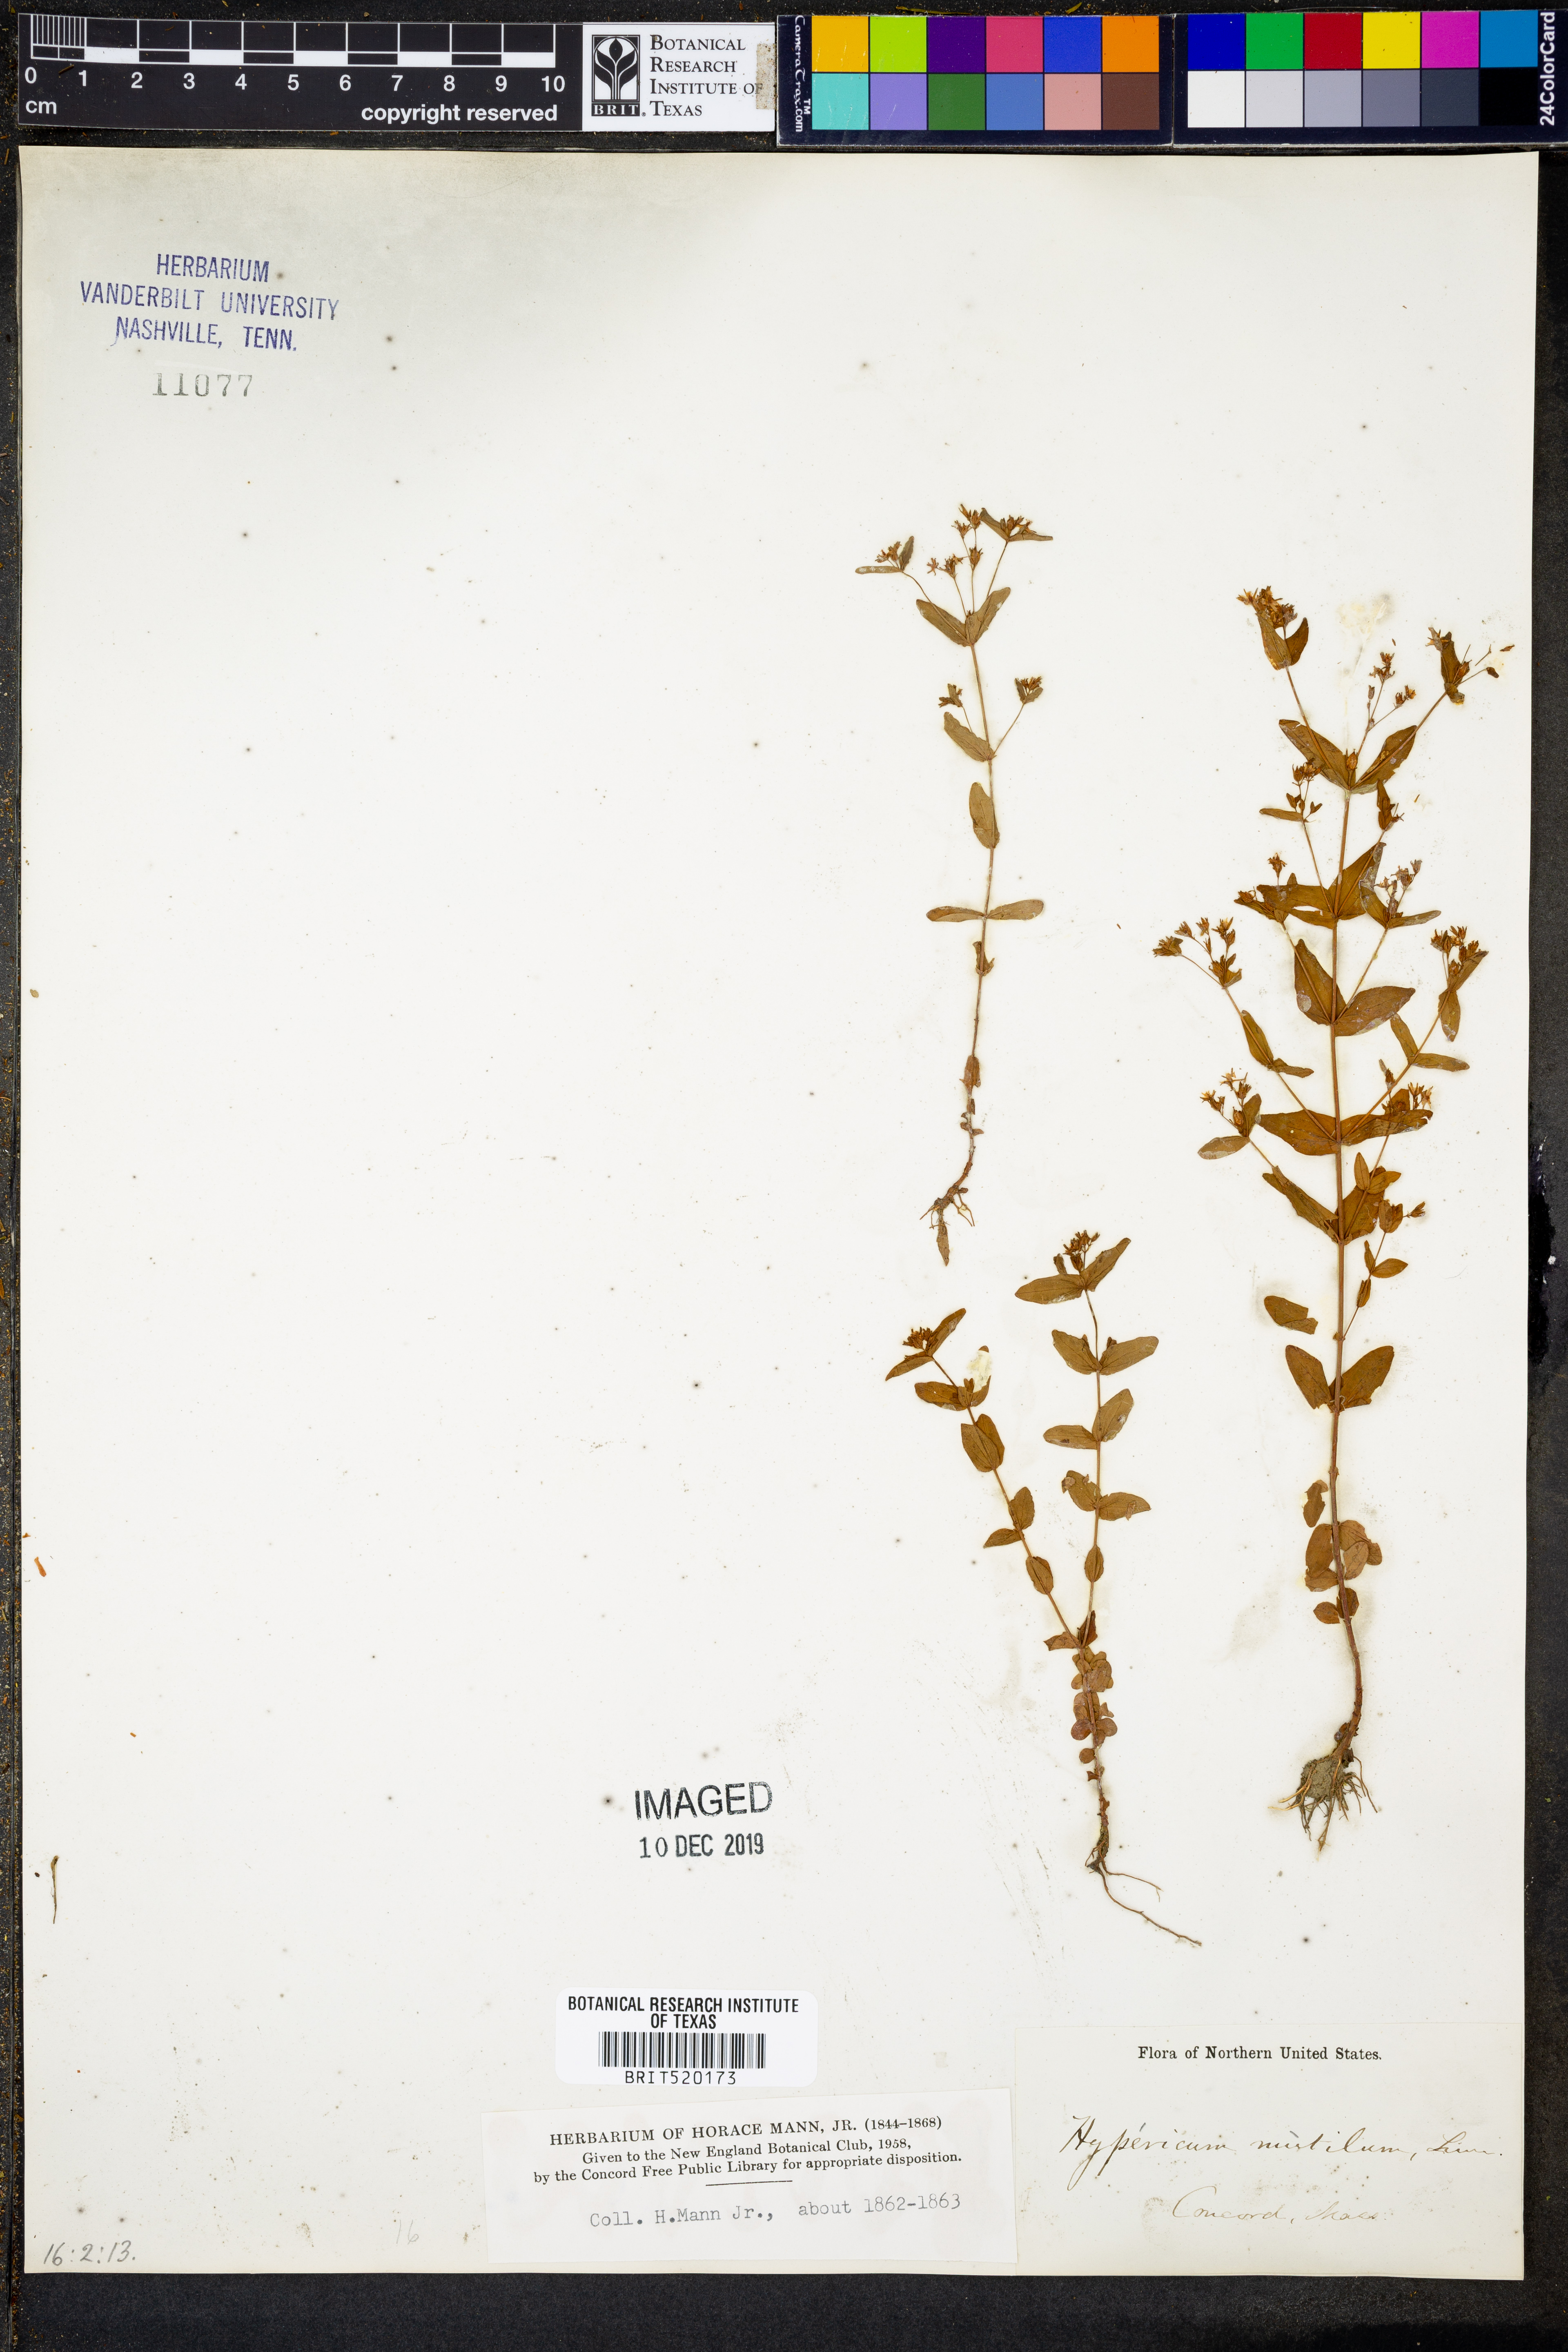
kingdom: Plantae
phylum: Tracheophyta
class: Magnoliopsida
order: Malpighiales
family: Hypericaceae
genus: Hypericum
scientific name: Hypericum mutilum
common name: Dwarf st. john's-wort
